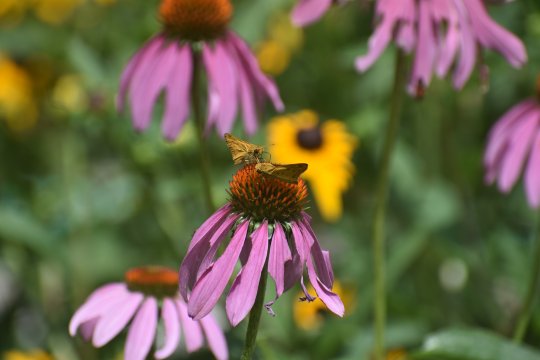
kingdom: Animalia
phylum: Arthropoda
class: Insecta
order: Lepidoptera
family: Hesperiidae
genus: Hylephila
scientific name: Hylephila phyleus
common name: Fiery Skipper
